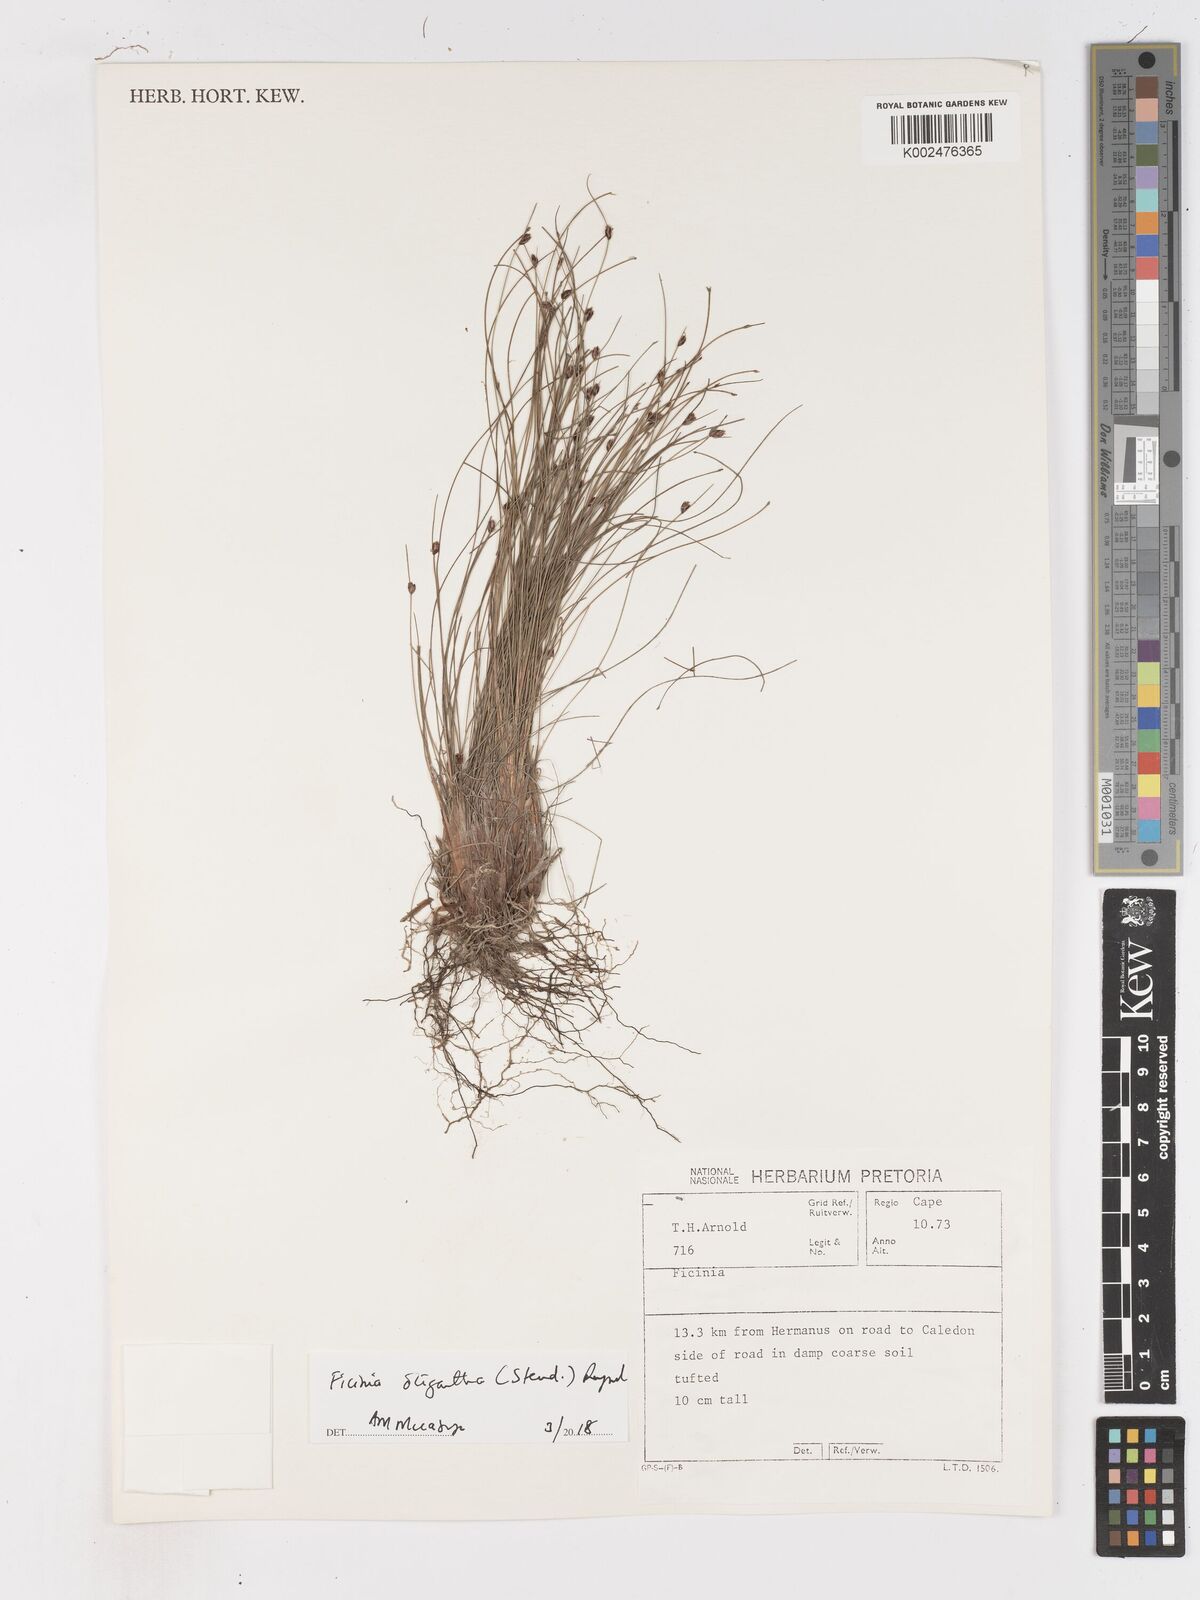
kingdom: Plantae
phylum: Tracheophyta
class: Liliopsida
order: Poales
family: Cyperaceae
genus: Ficinia
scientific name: Ficinia oligantha
